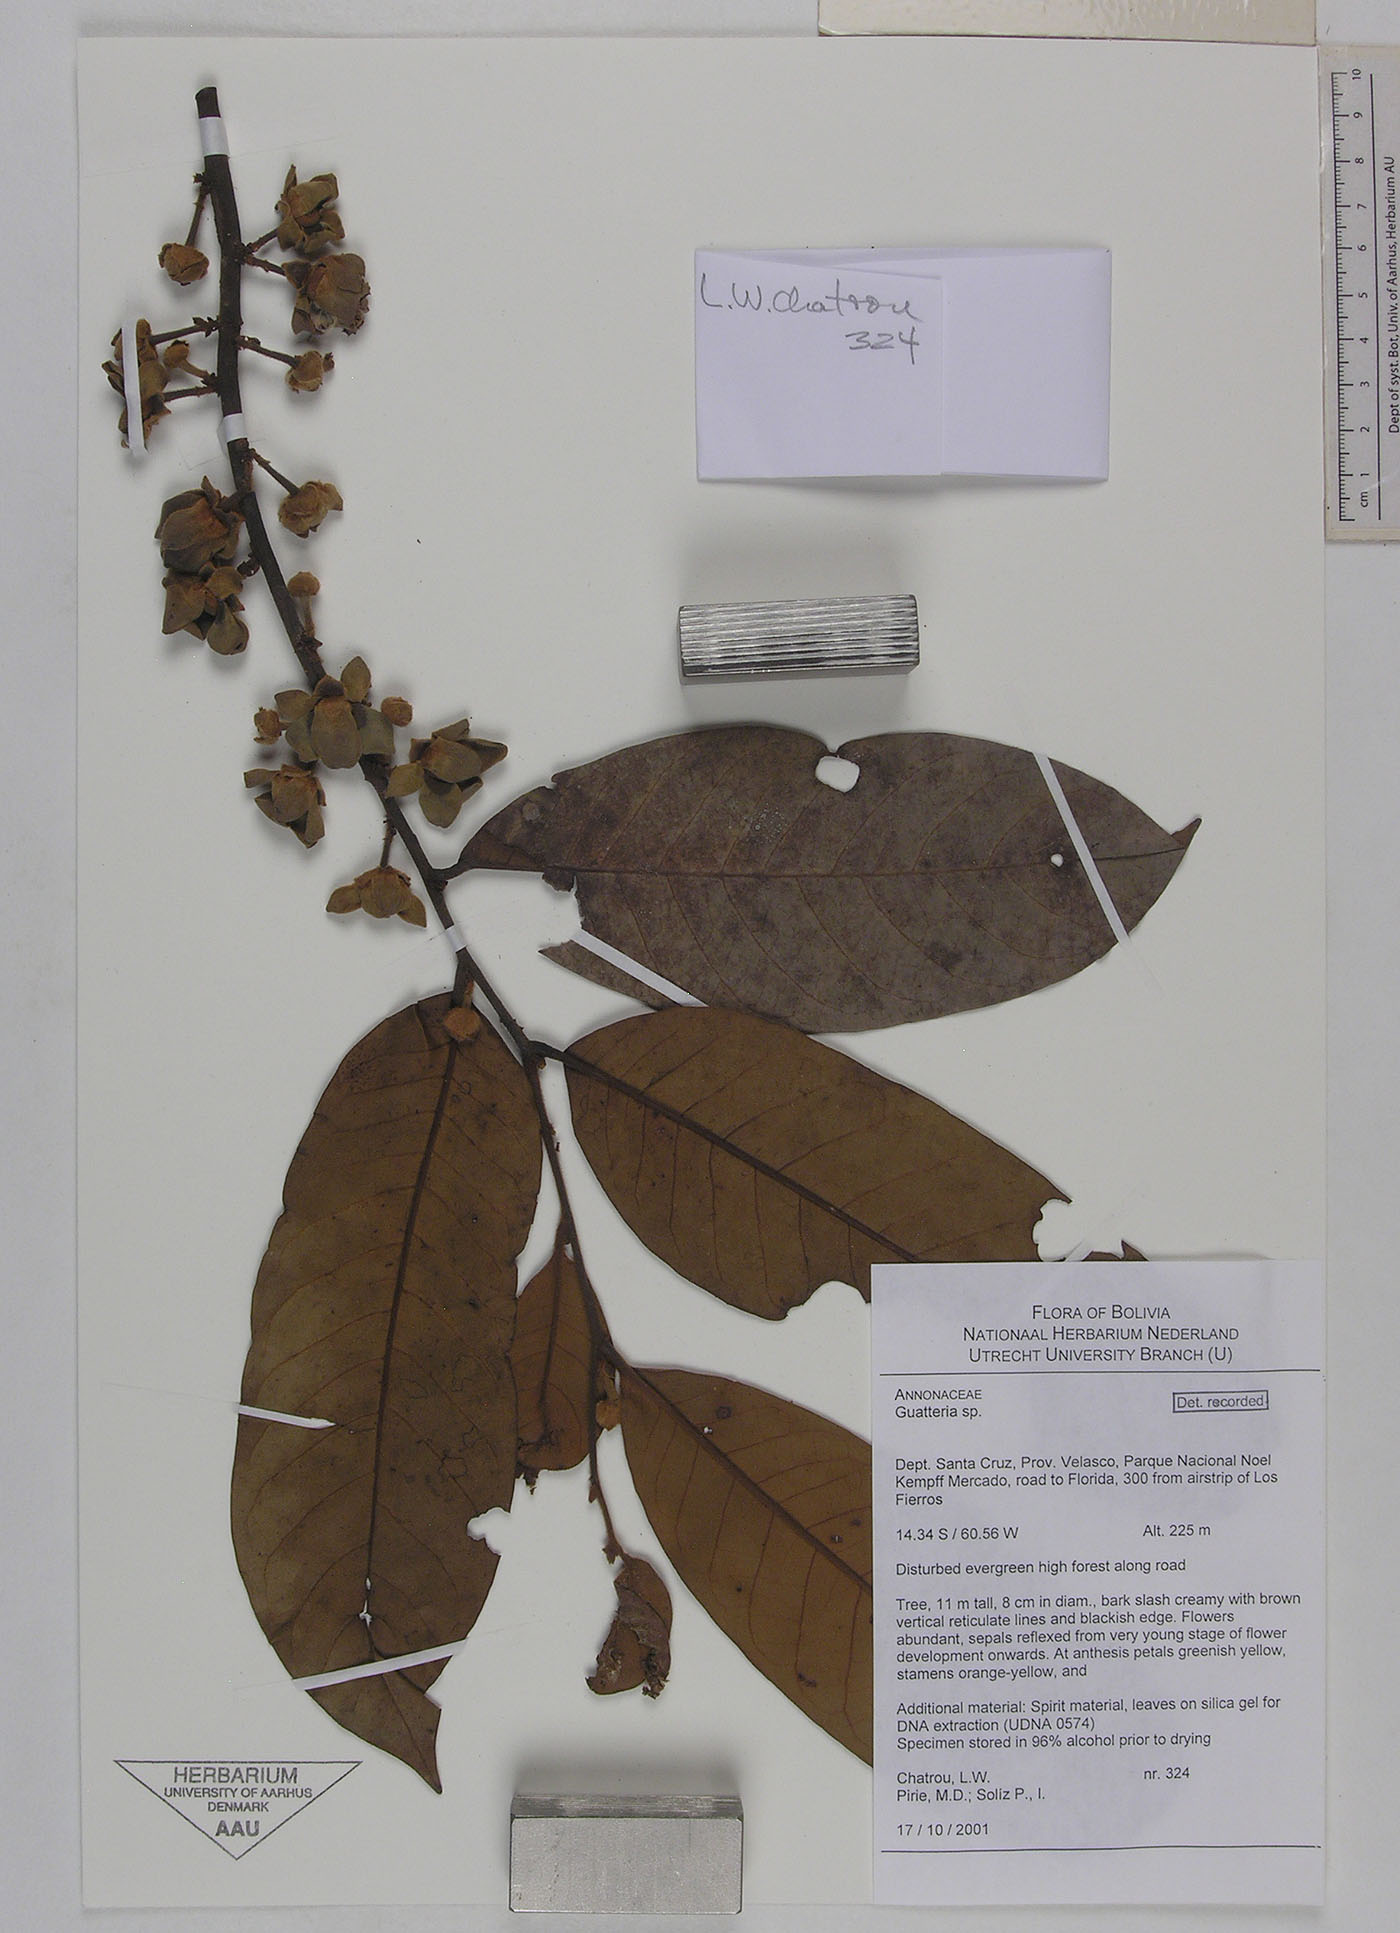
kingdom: Plantae
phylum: Tracheophyta
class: Magnoliopsida
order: Magnoliales
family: Annonaceae
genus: Guatteria
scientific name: Guatteria punctata
